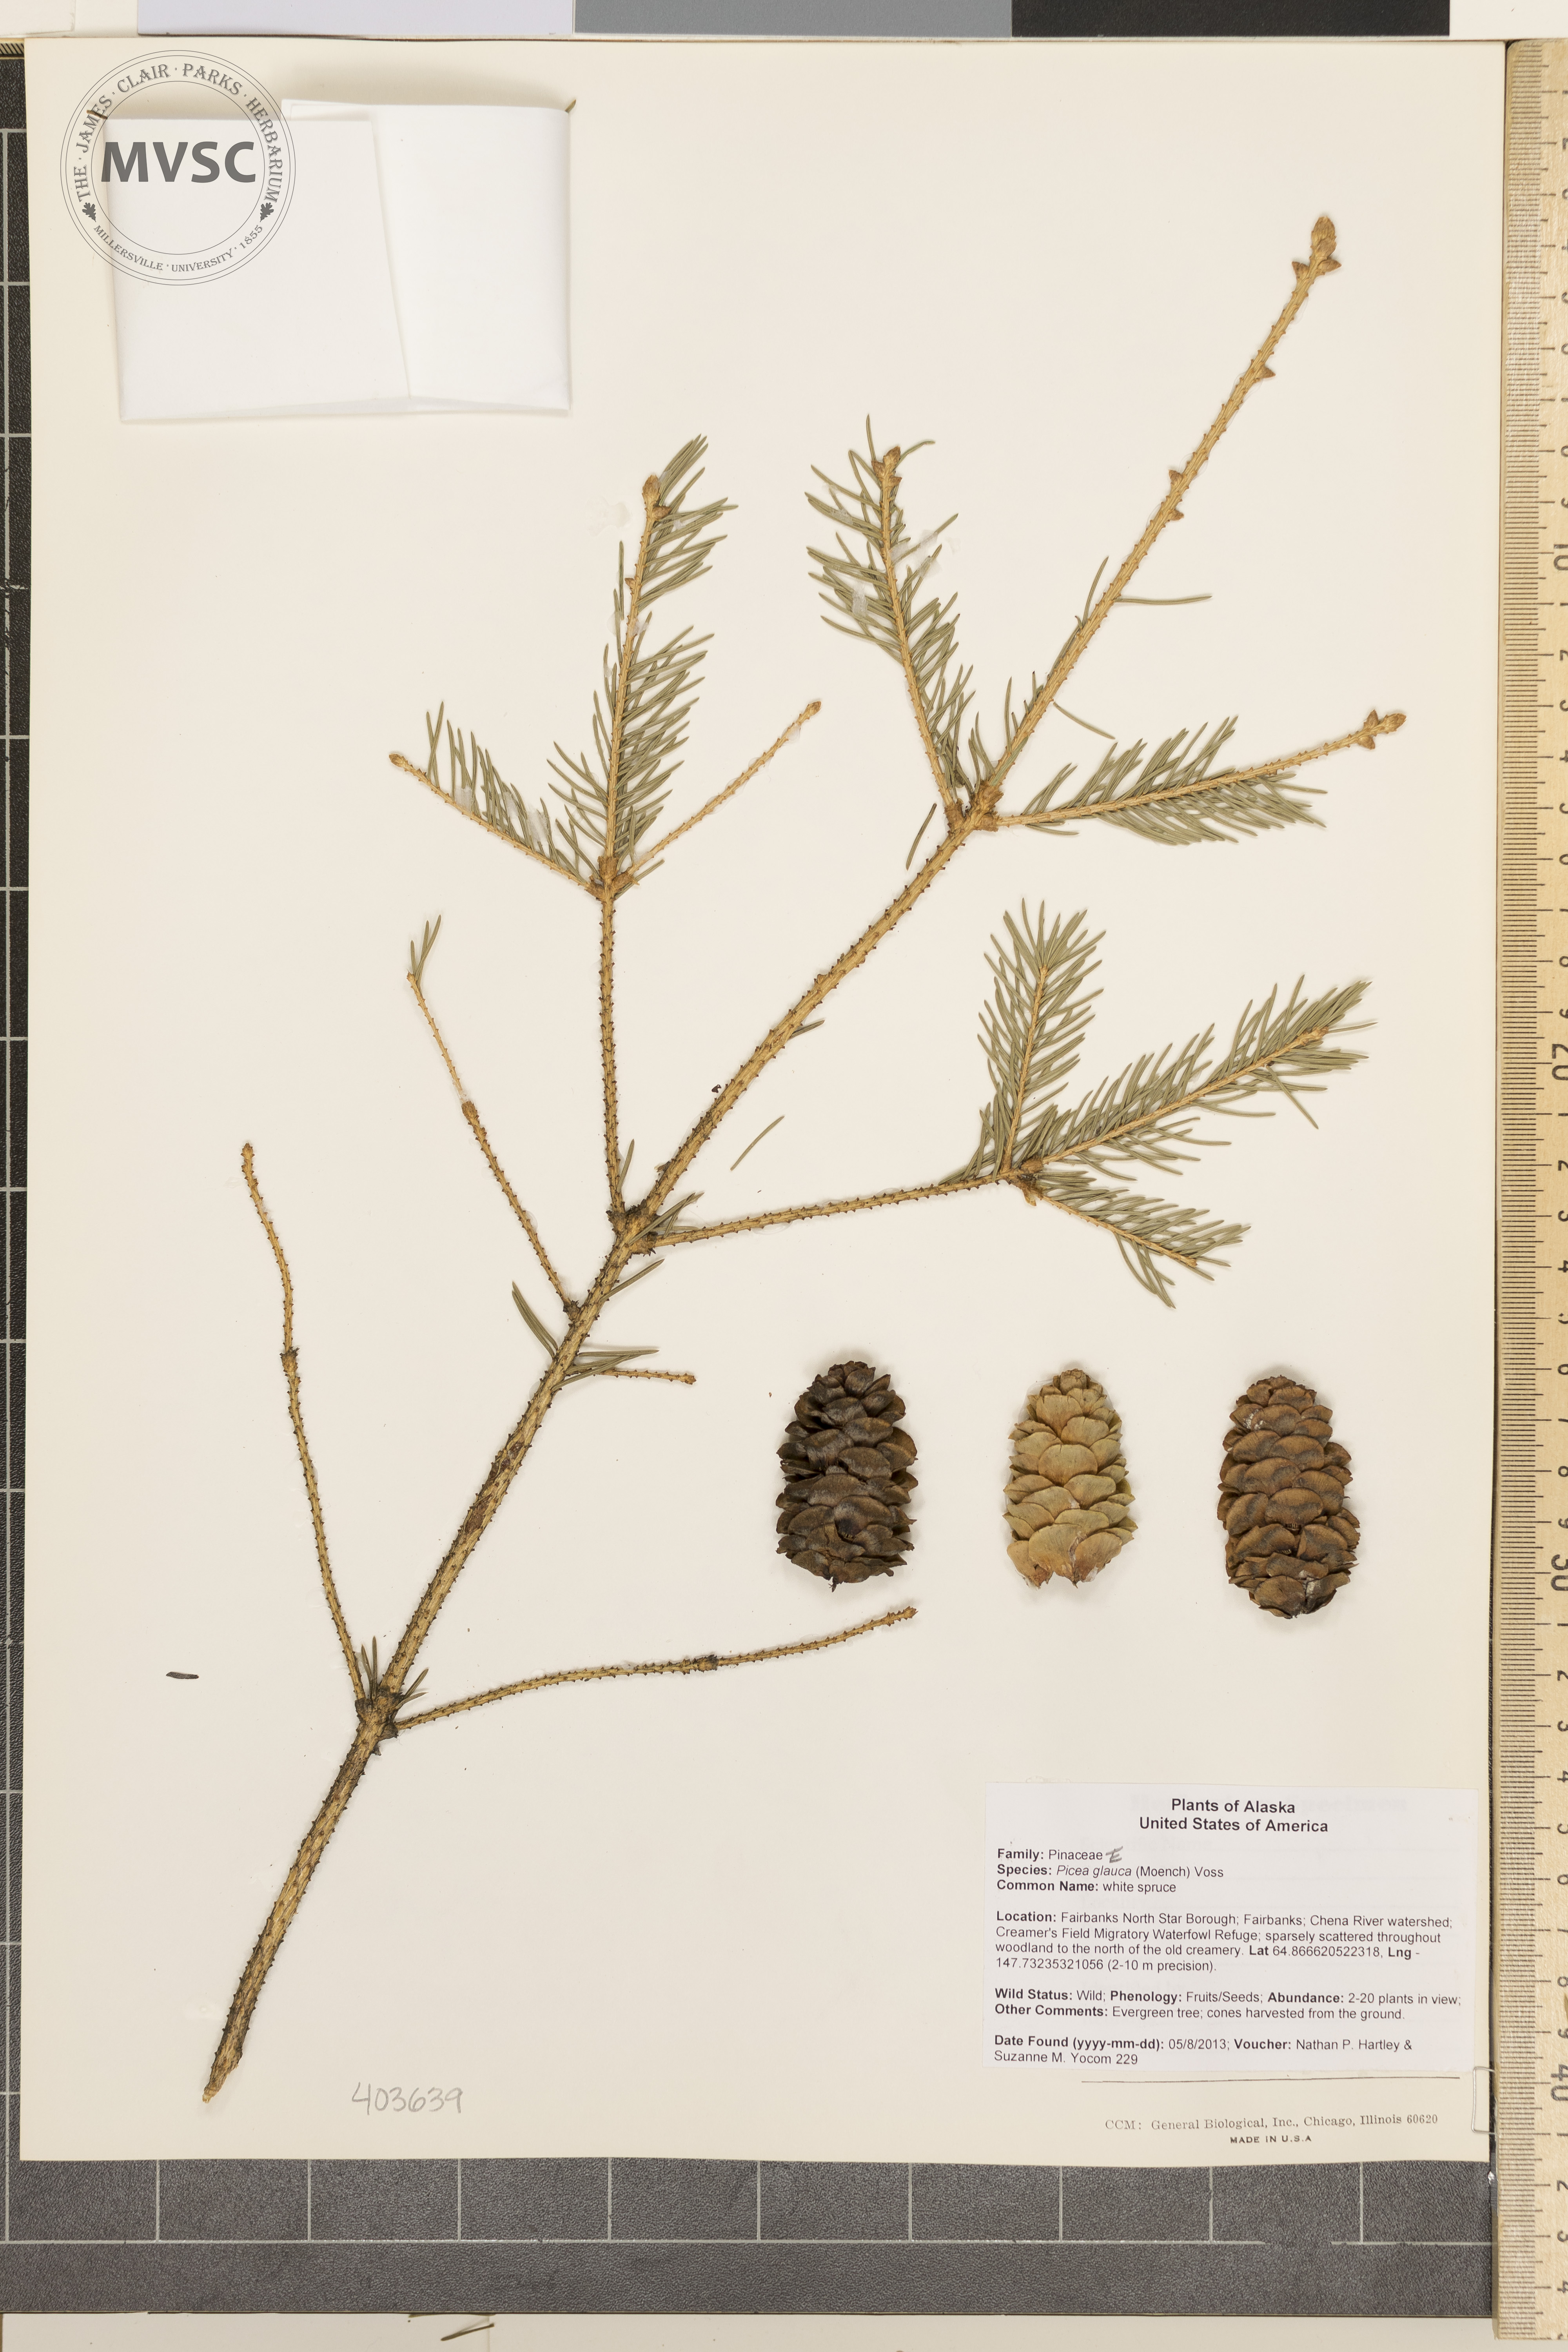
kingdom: Plantae
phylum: Tracheophyta
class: Pinopsida
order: Pinales
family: Pinaceae
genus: Picea
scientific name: Picea glauca
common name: White spruce
